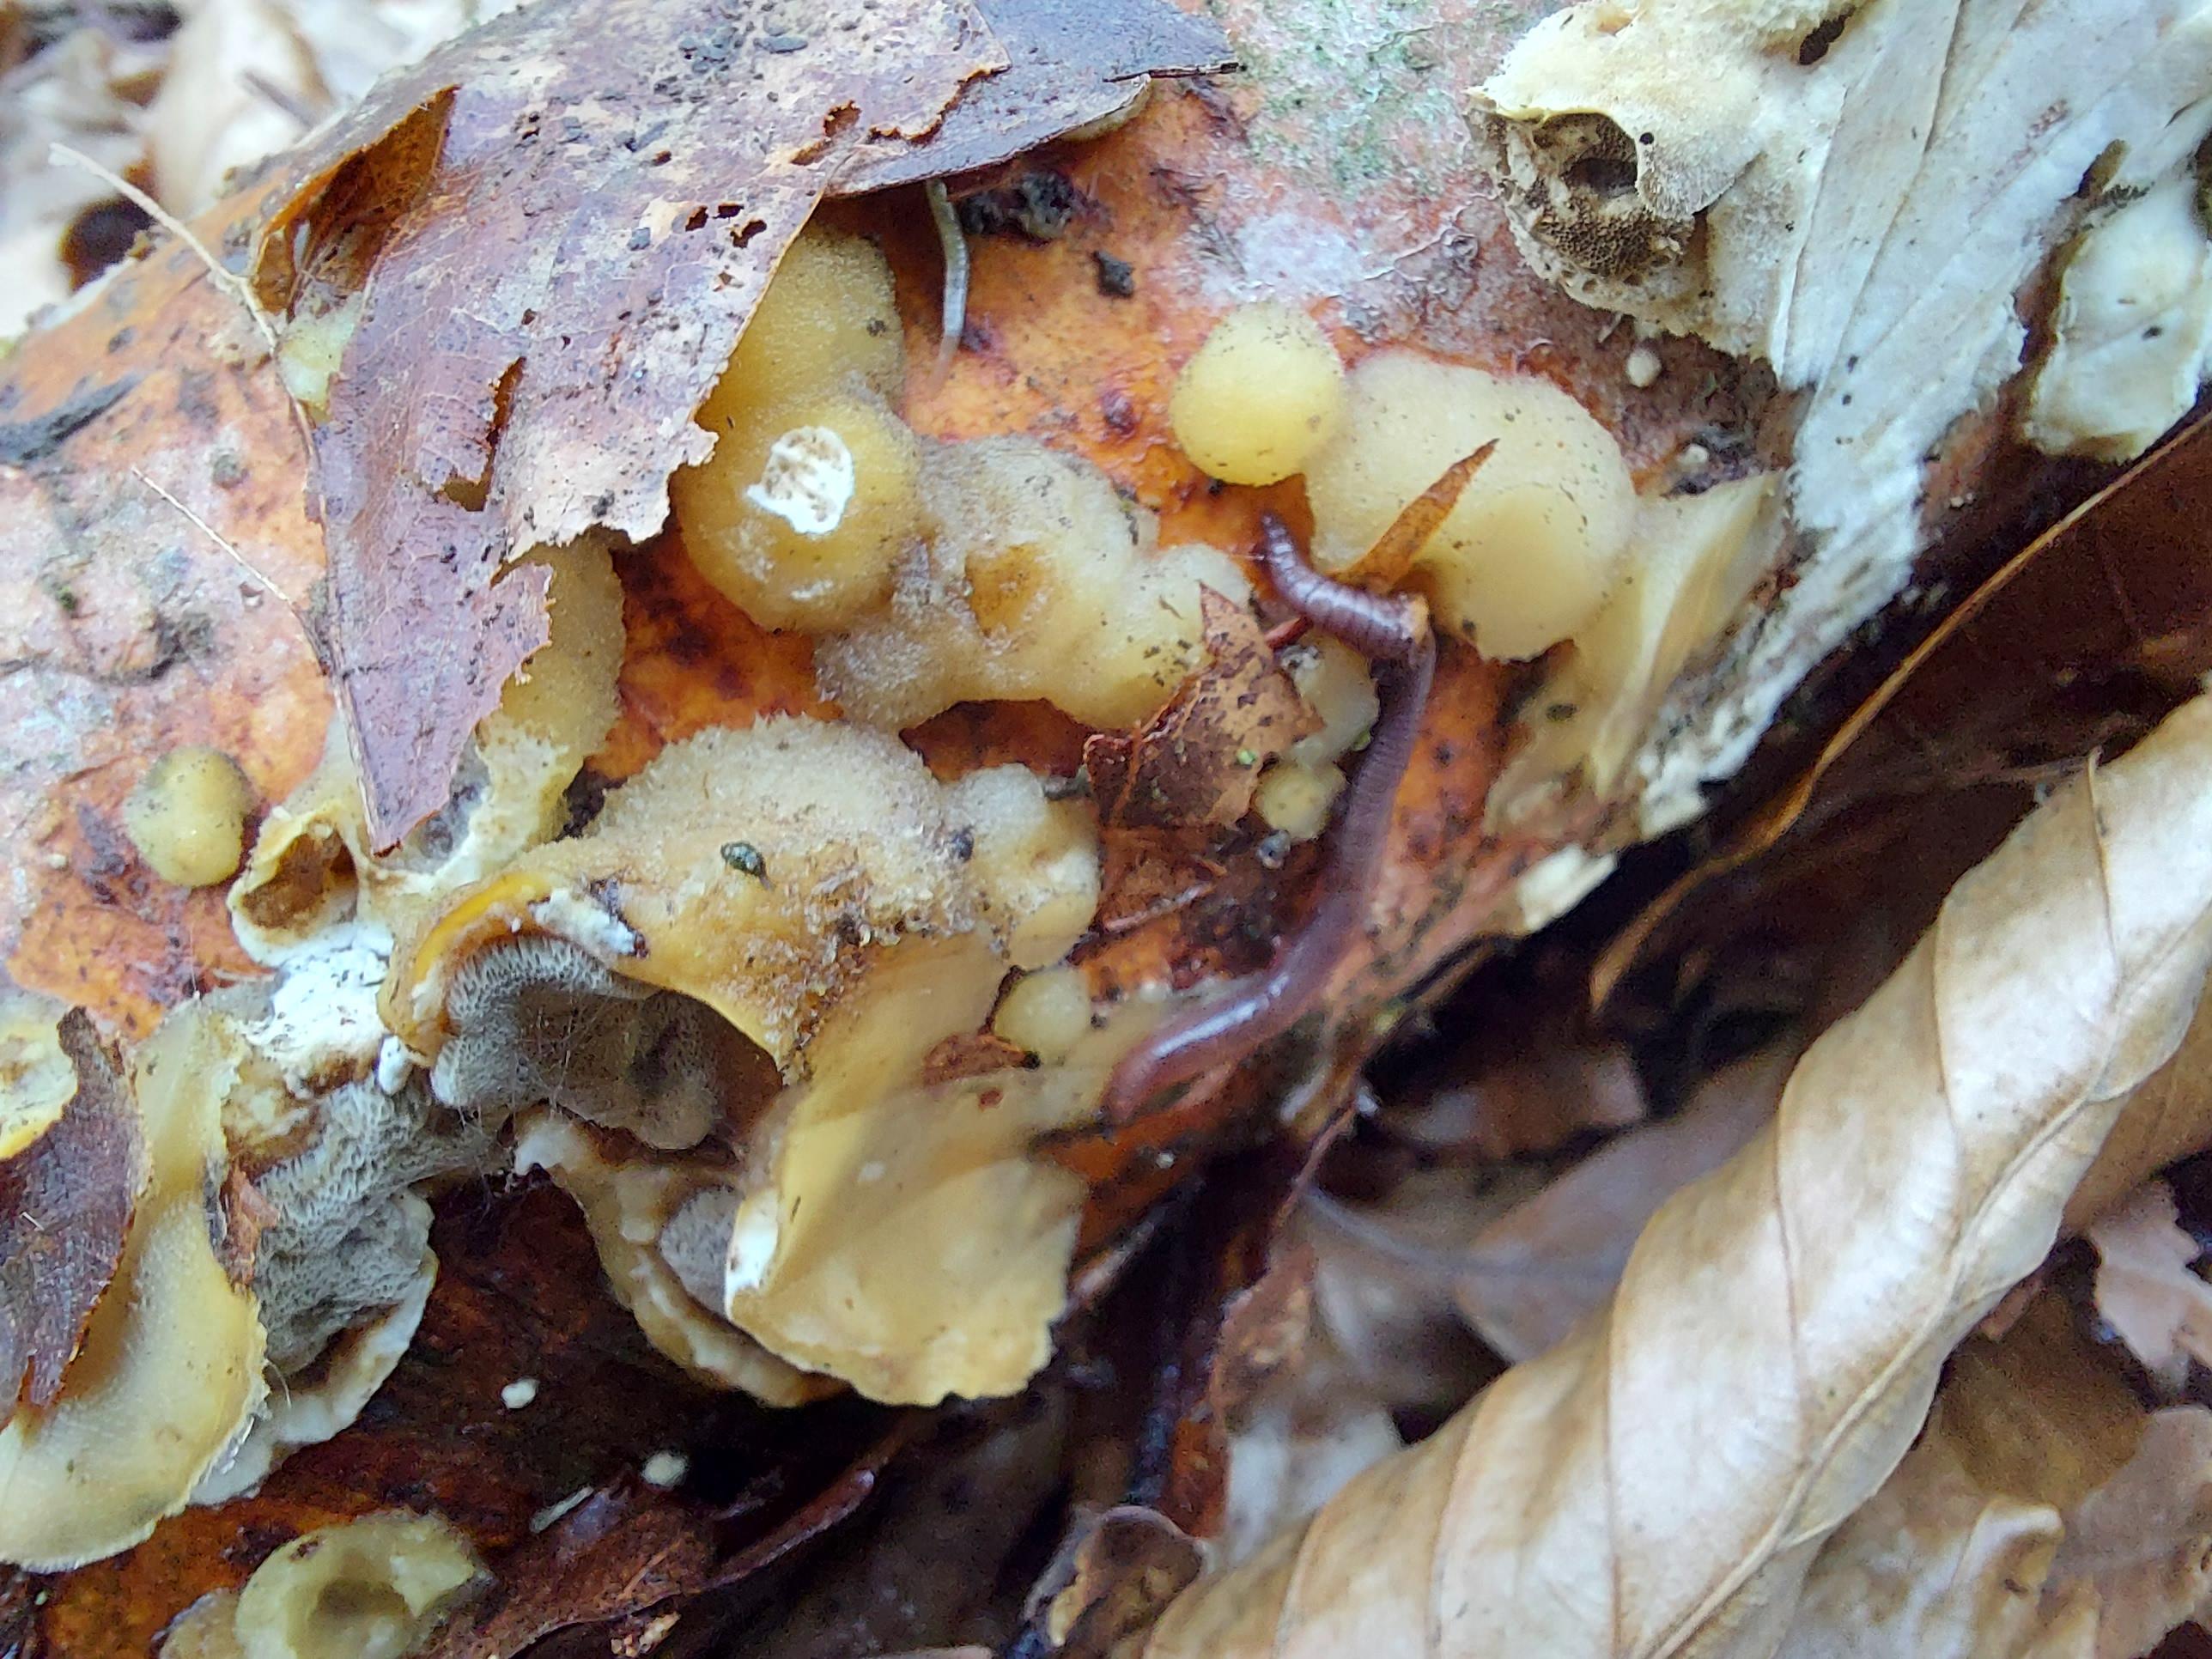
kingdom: Fungi
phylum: Basidiomycota
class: Agaricomycetes
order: Polyporales
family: Phanerochaetaceae
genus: Bjerkandera
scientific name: Bjerkandera adusta
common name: sveden sodporesvamp
